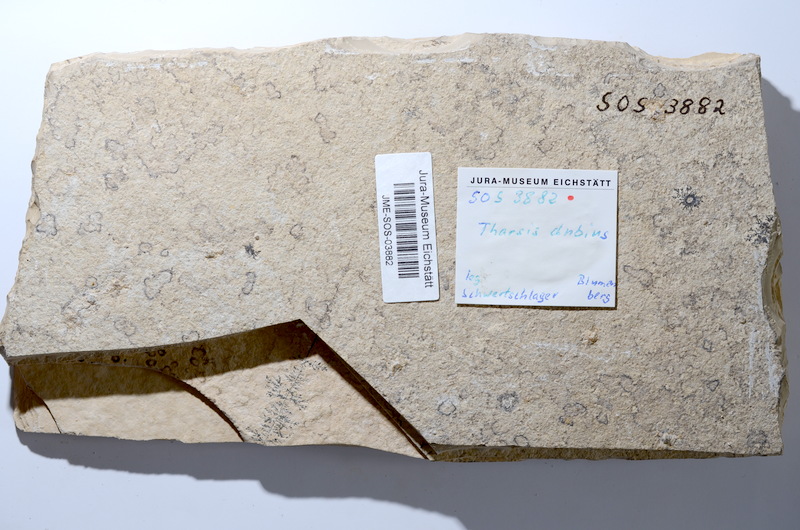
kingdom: Animalia
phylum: Chordata
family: Ascalaboidae
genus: Tharsis
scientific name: Tharsis dubius
